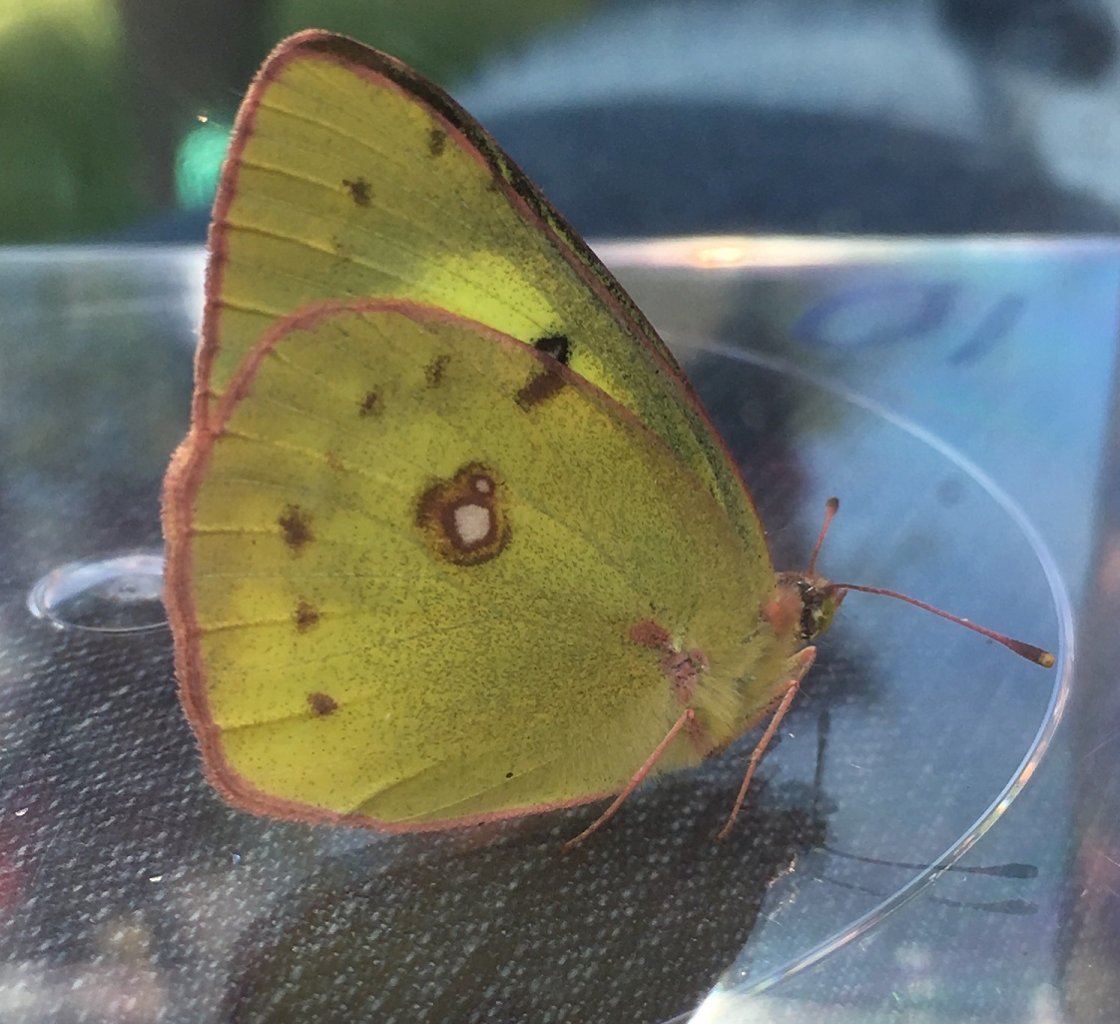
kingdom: Animalia
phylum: Arthropoda
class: Insecta
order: Lepidoptera
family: Pieridae
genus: Colias
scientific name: Colias philodice
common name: Clouded Sulphur
